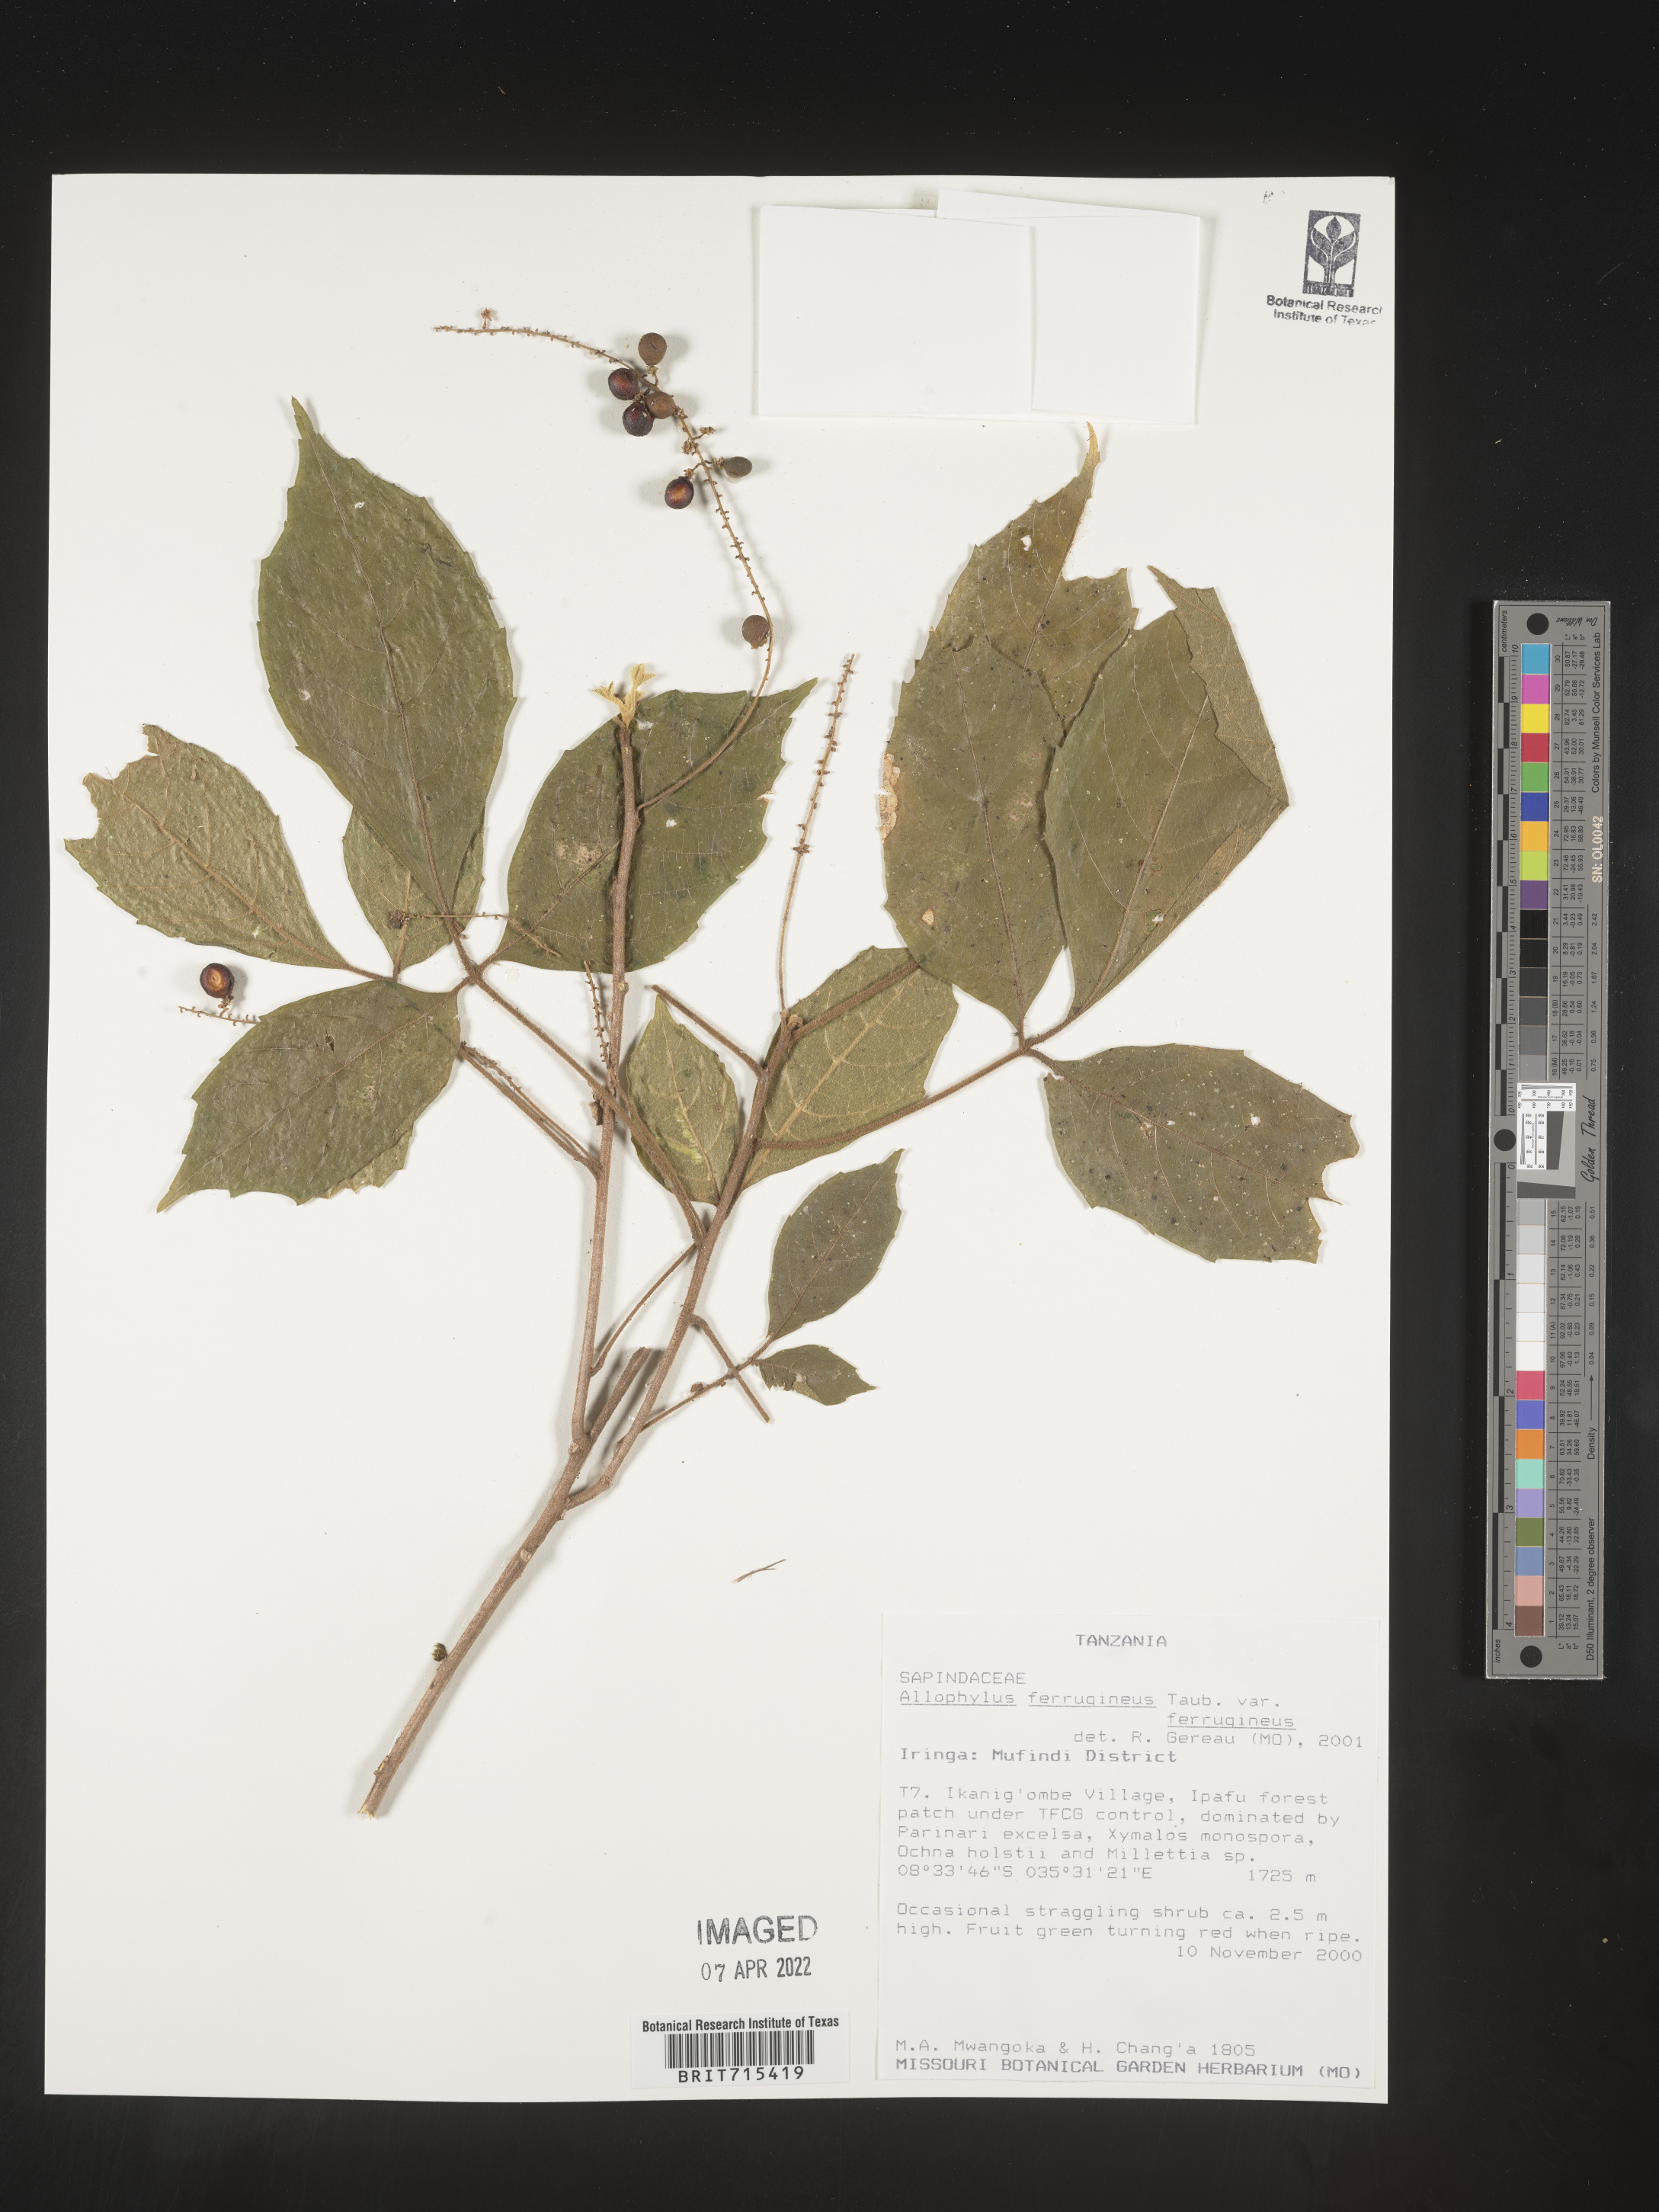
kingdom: Plantae
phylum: Tracheophyta
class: Magnoliopsida
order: Sapindales
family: Sapindaceae
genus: Allophylus
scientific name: Allophylus ferrugineus
